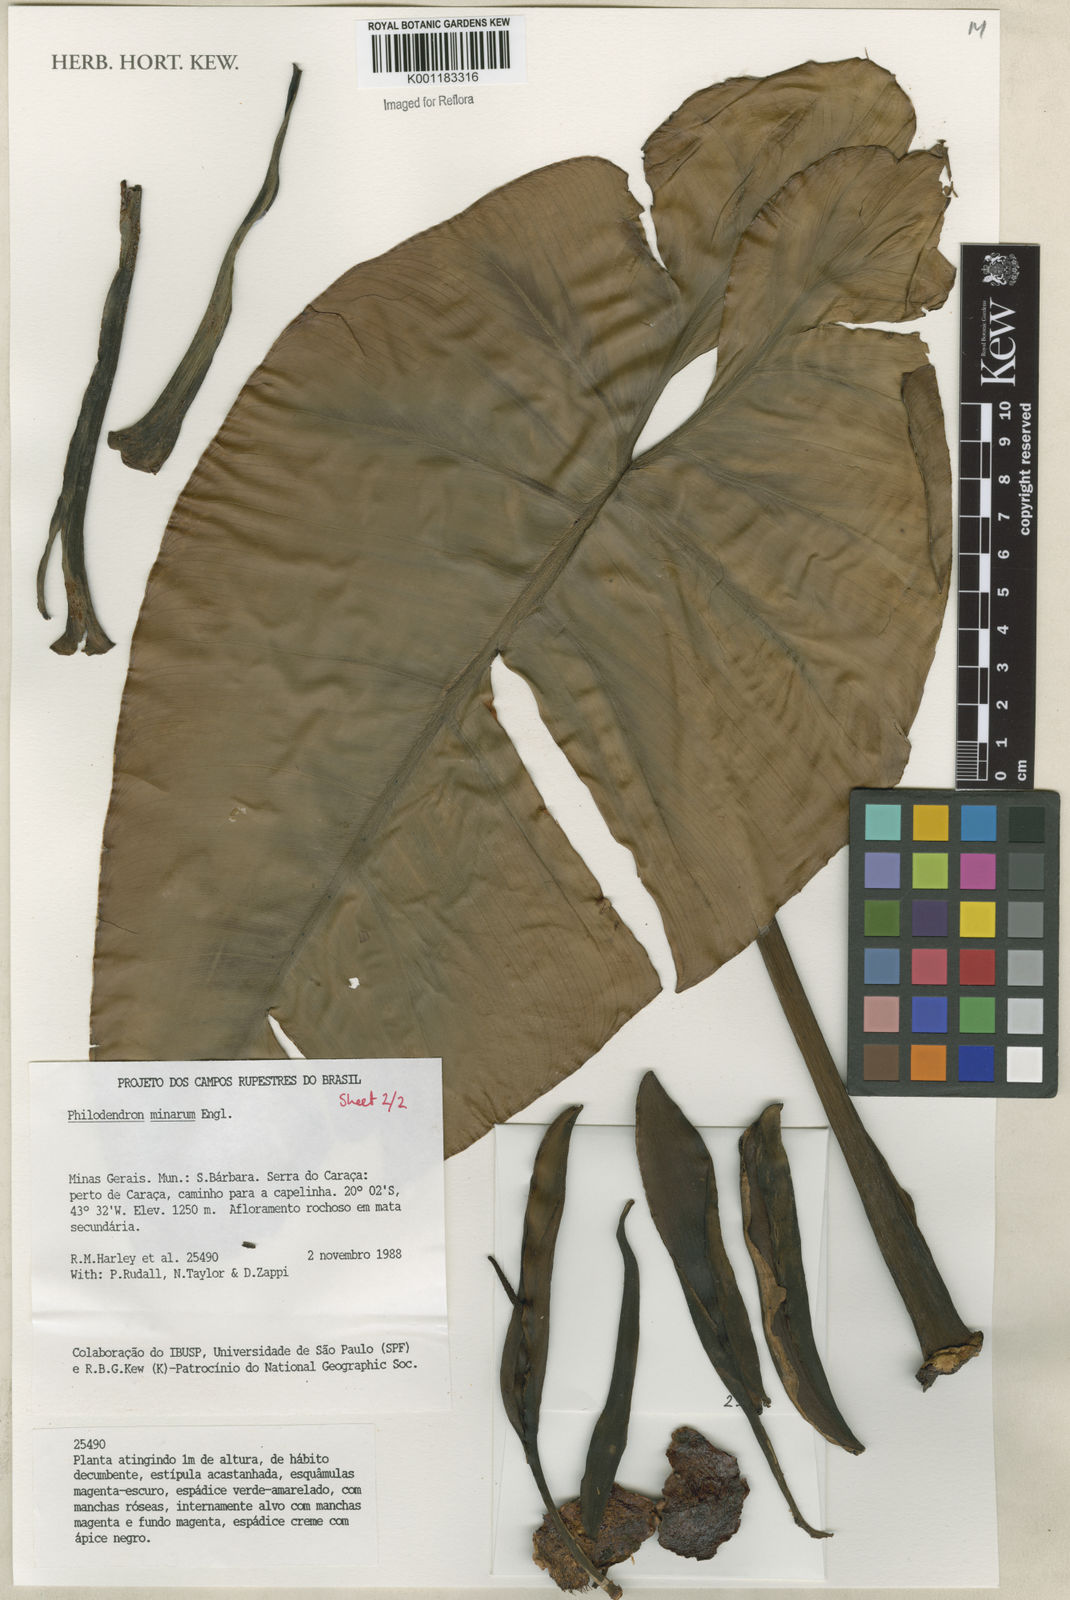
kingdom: Plantae
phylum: Tracheophyta
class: Liliopsida
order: Alismatales
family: Araceae
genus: Philodendron
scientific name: Philodendron minarum
